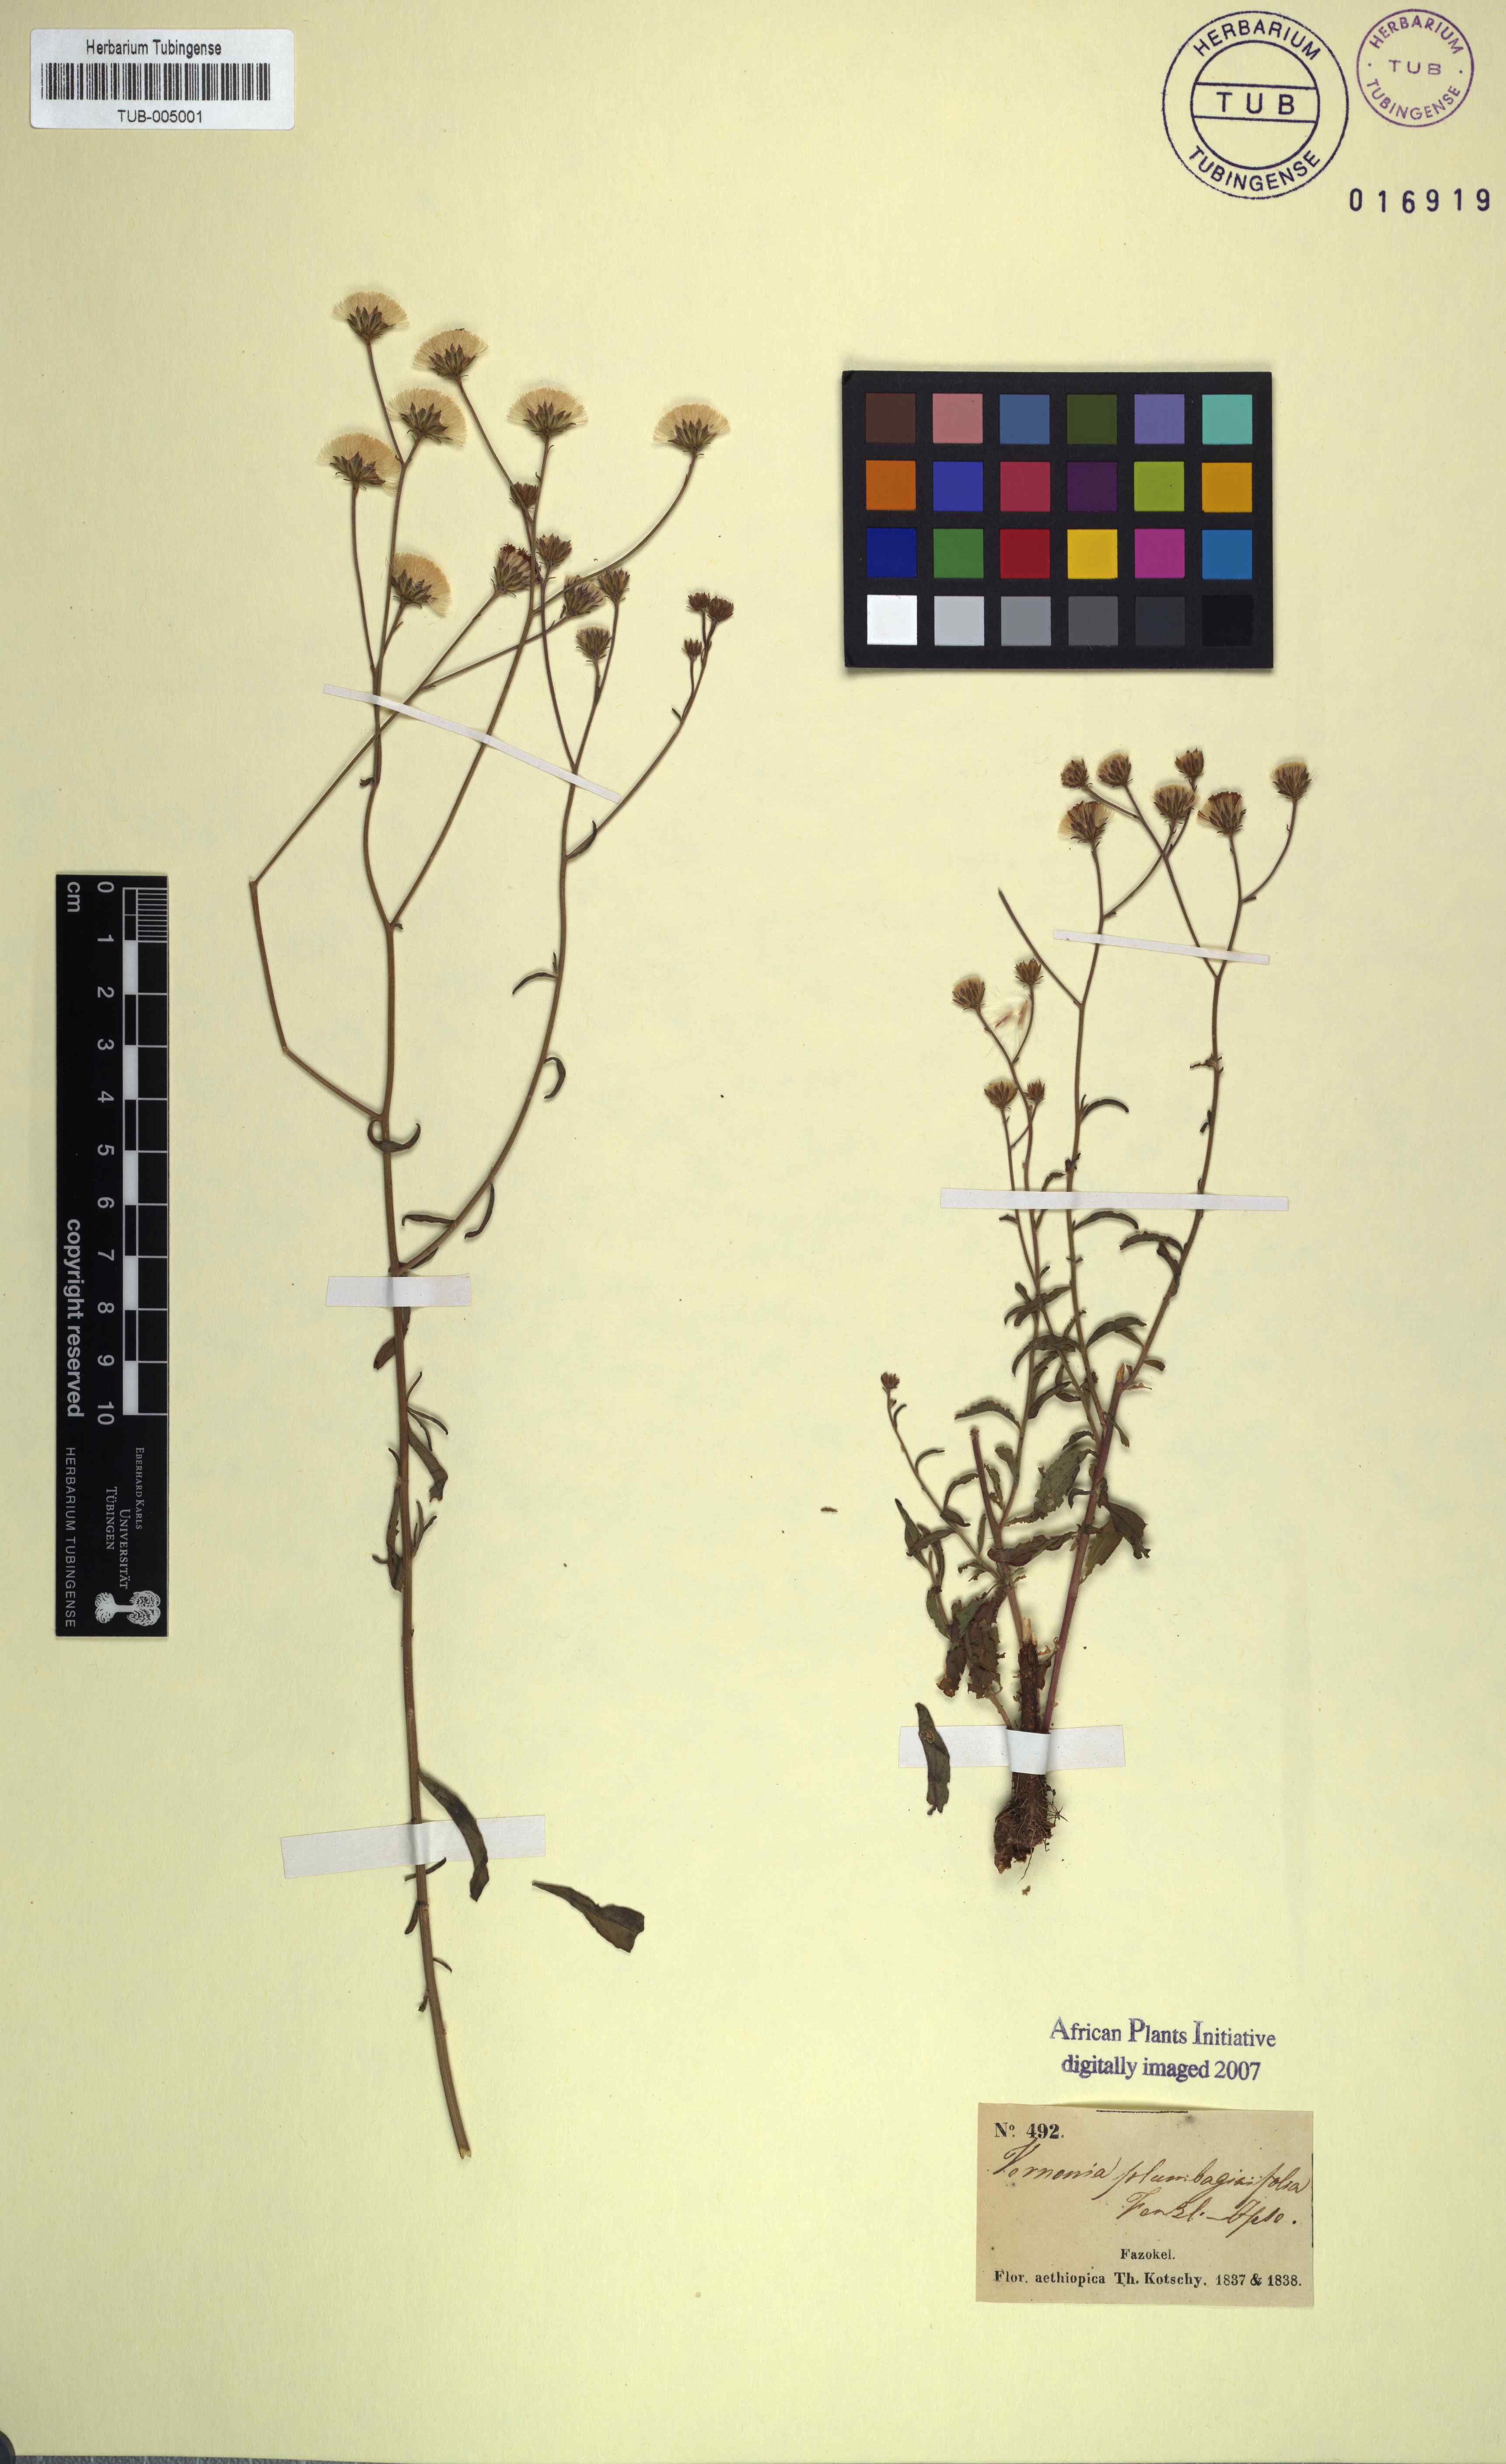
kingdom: Plantae
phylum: Tracheophyta
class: Magnoliopsida
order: Asterales
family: Asteraceae
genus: Vernonia
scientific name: Vernonia plumbaginifolia
